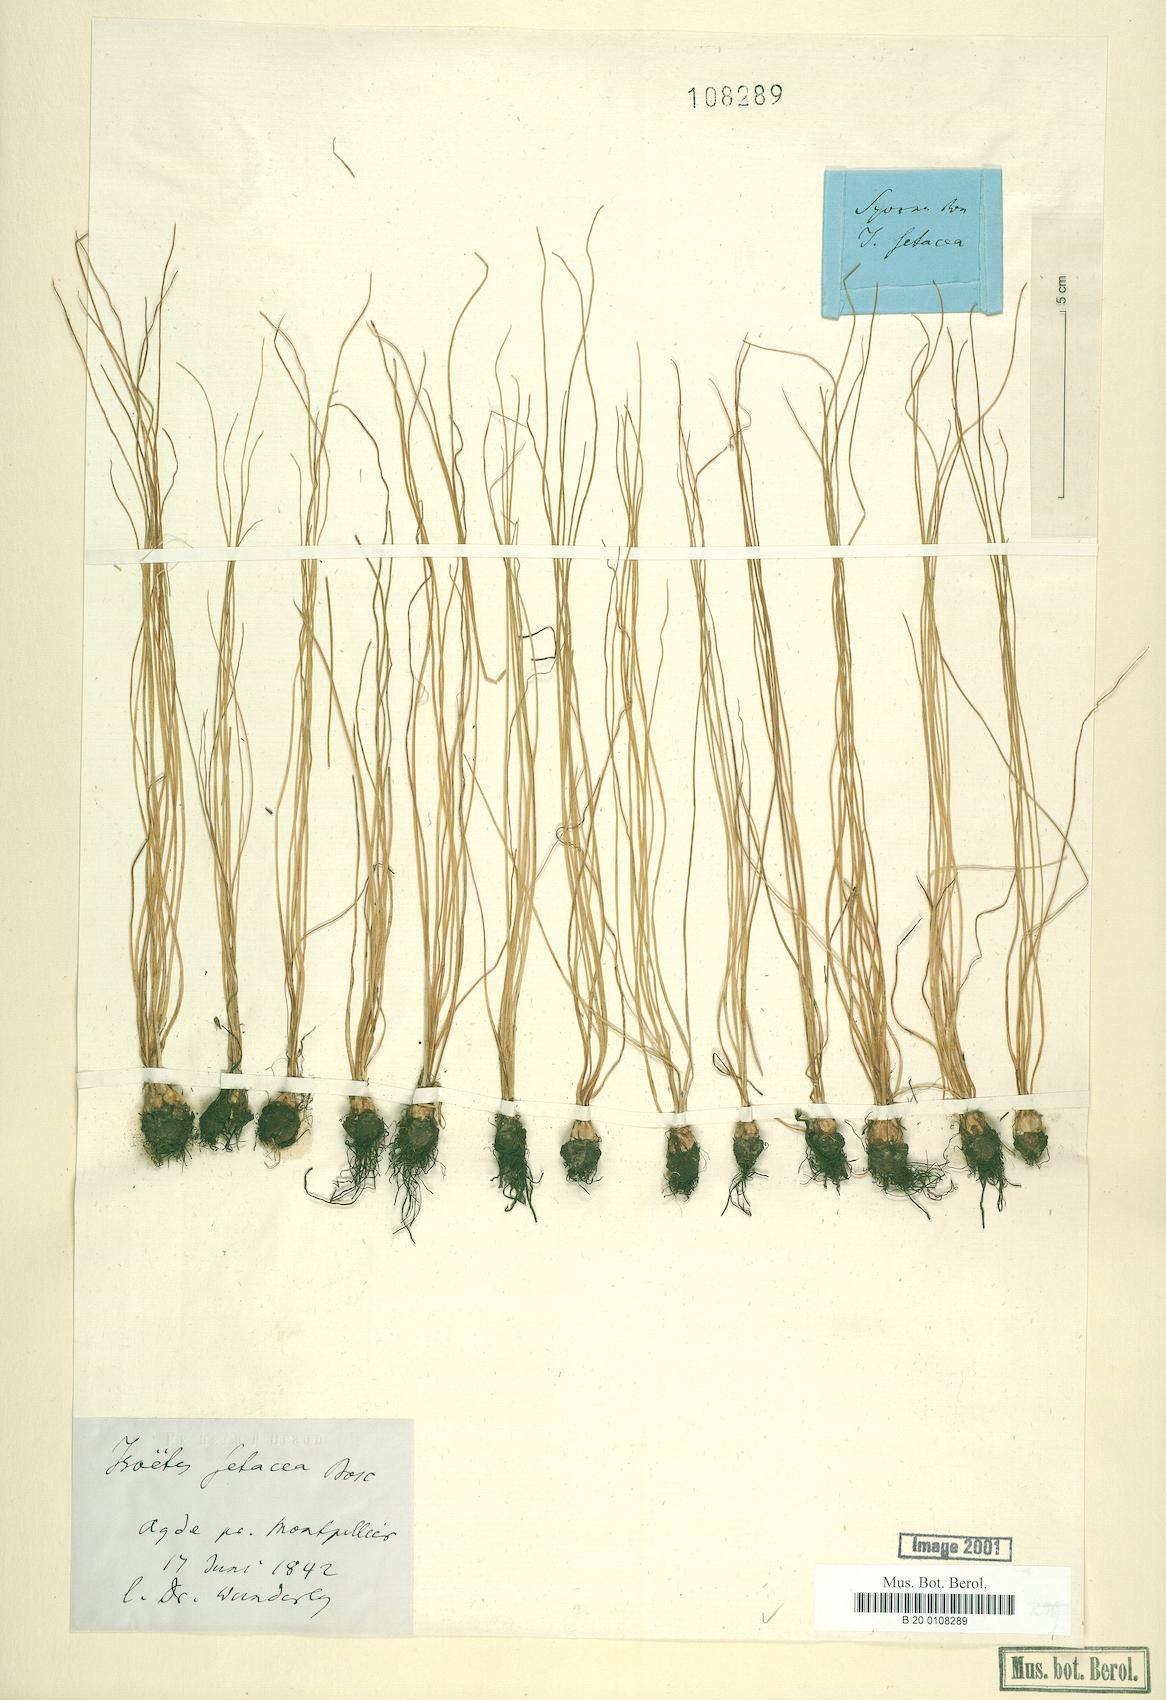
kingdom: Plantae
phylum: Tracheophyta
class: Lycopodiopsida
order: Isoetales
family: Isoetaceae
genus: Isoetes
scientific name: Isoetes lacustris
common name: Common quillwort
